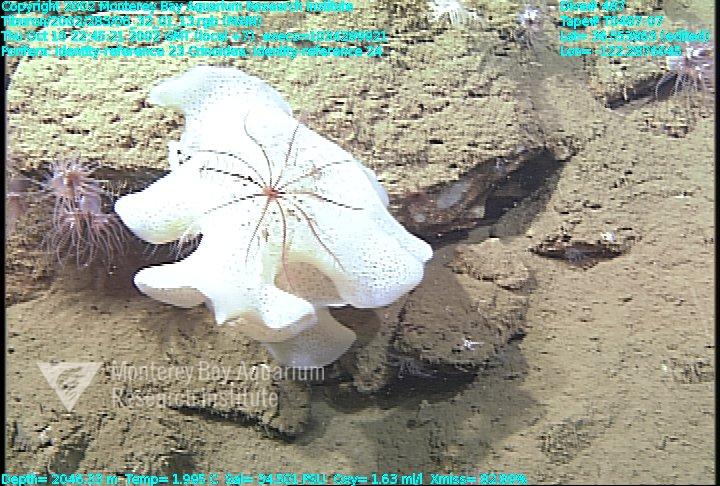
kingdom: Animalia
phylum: Porifera
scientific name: Porifera
